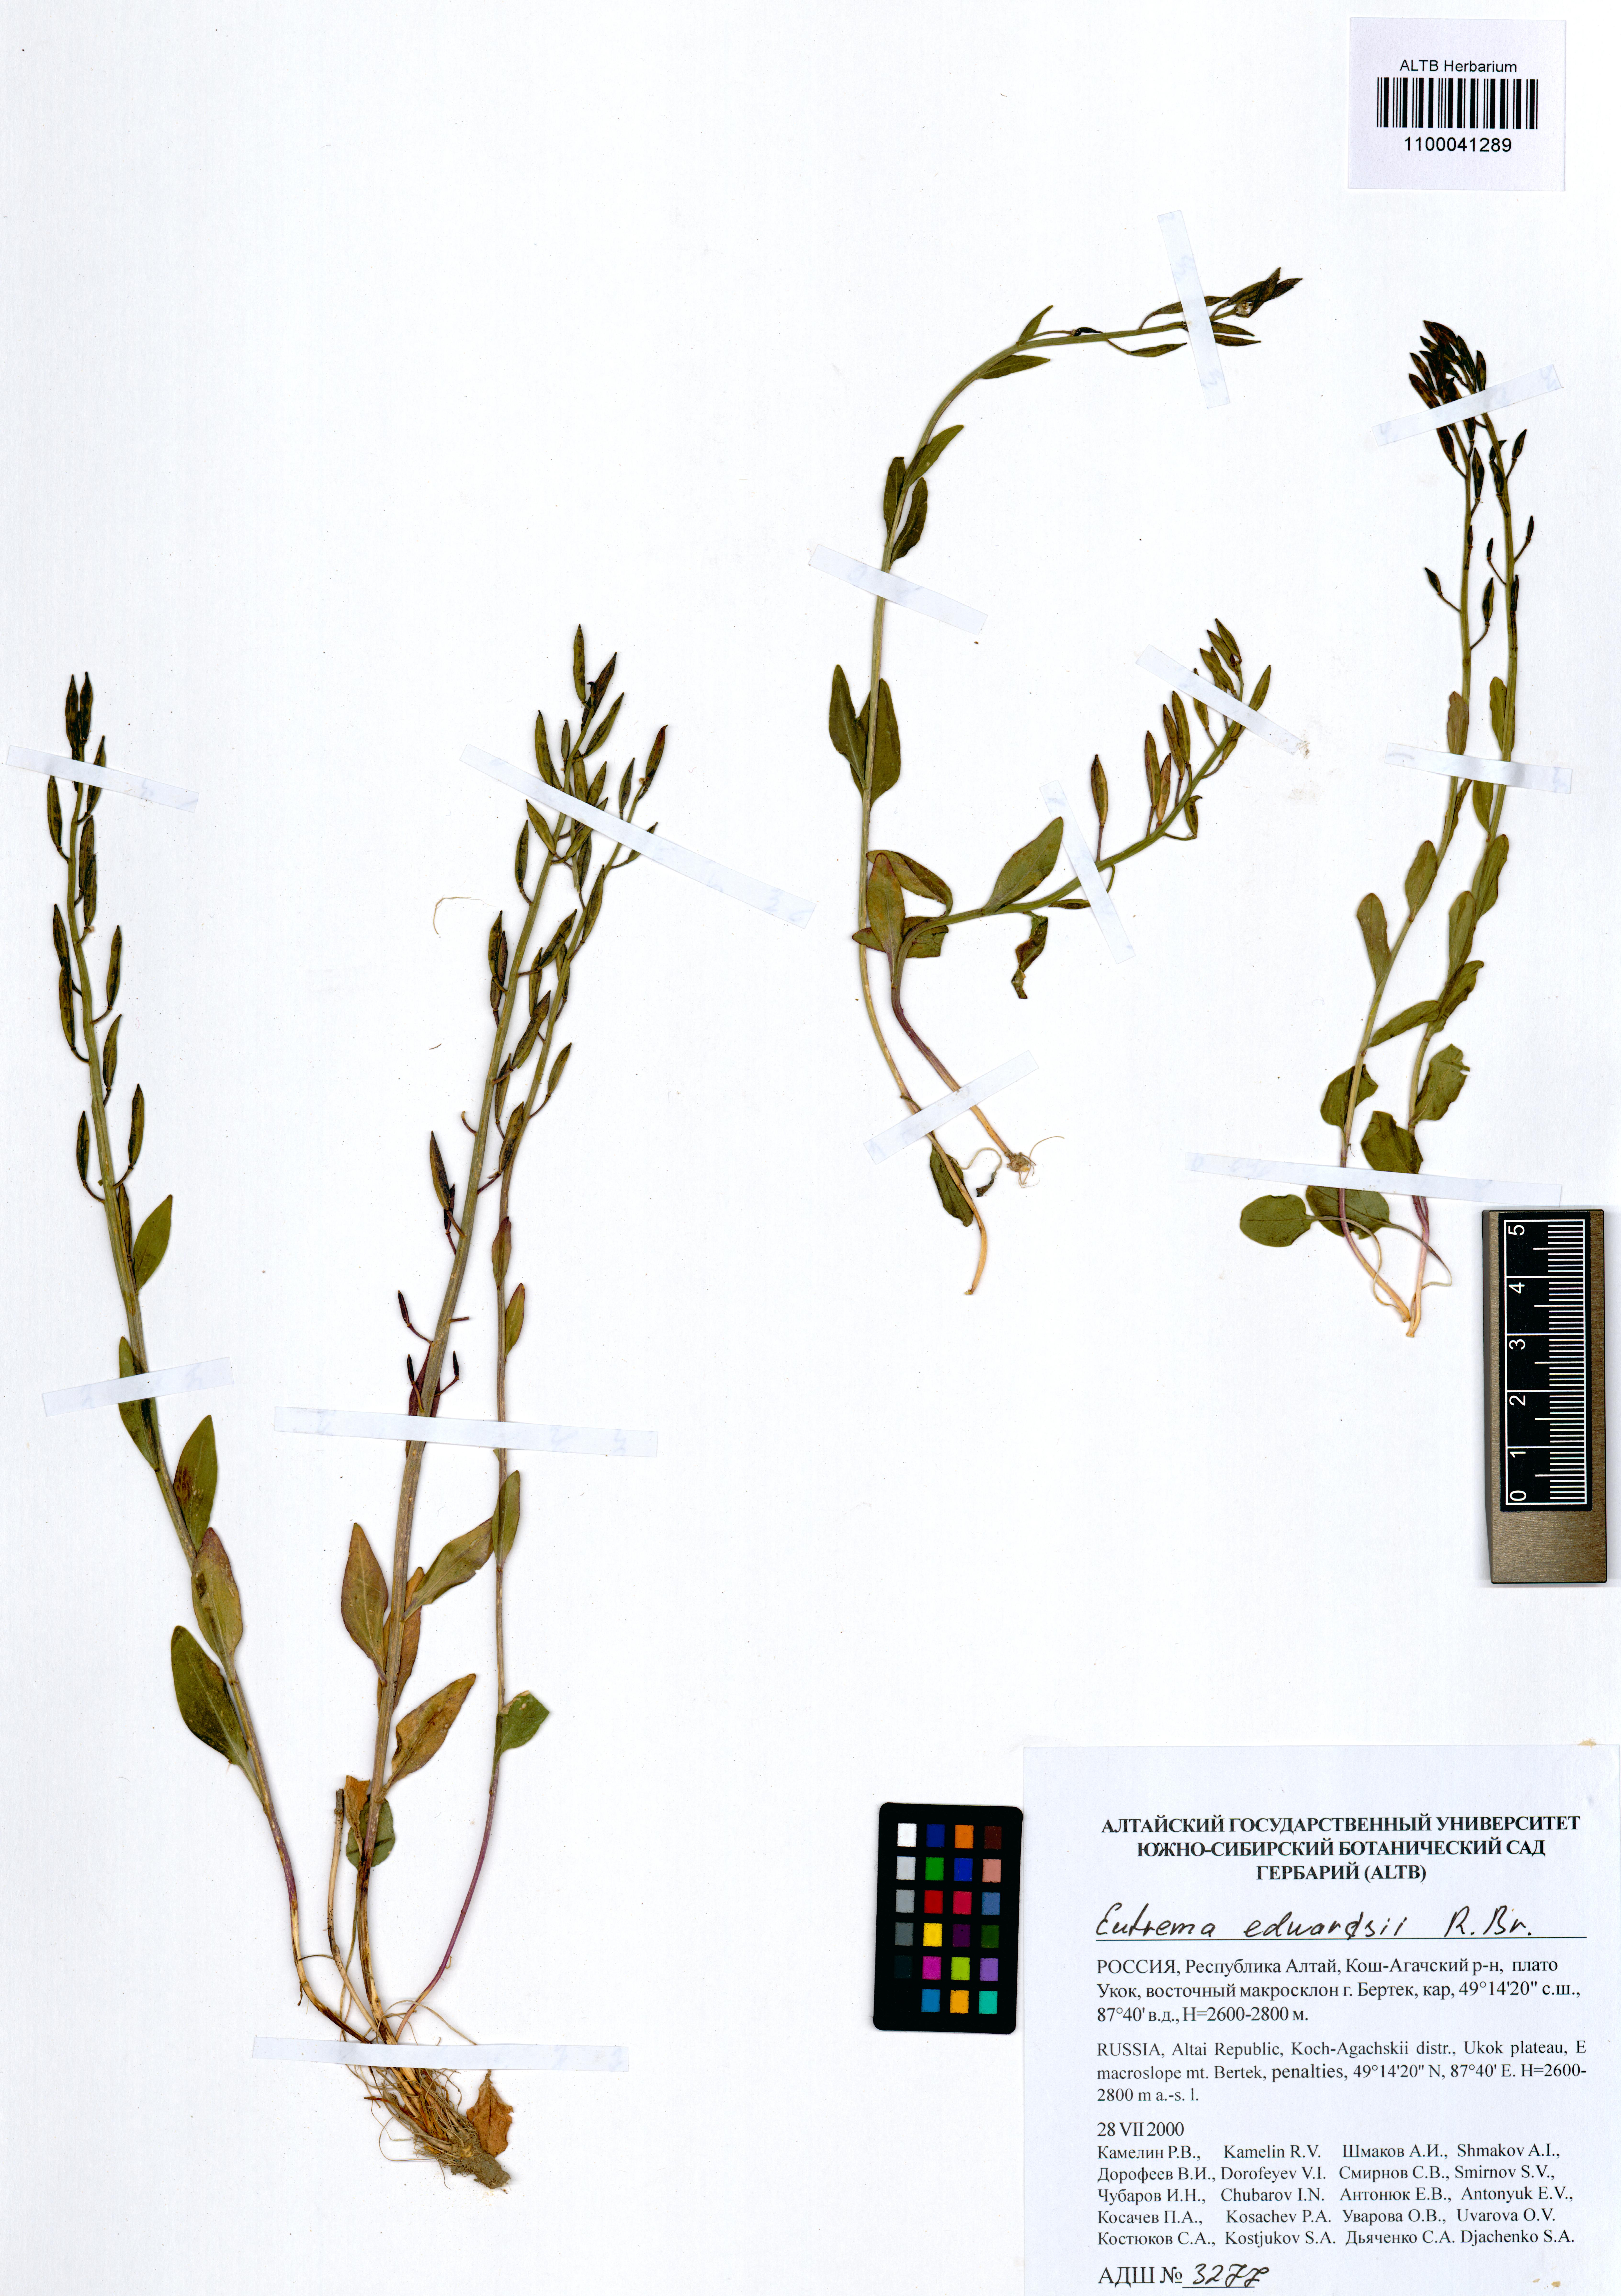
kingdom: Plantae
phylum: Tracheophyta
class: Magnoliopsida
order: Brassicales
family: Brassicaceae
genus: Eutrema
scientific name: Eutrema edwardsii
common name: Penland alpine fen mustard
